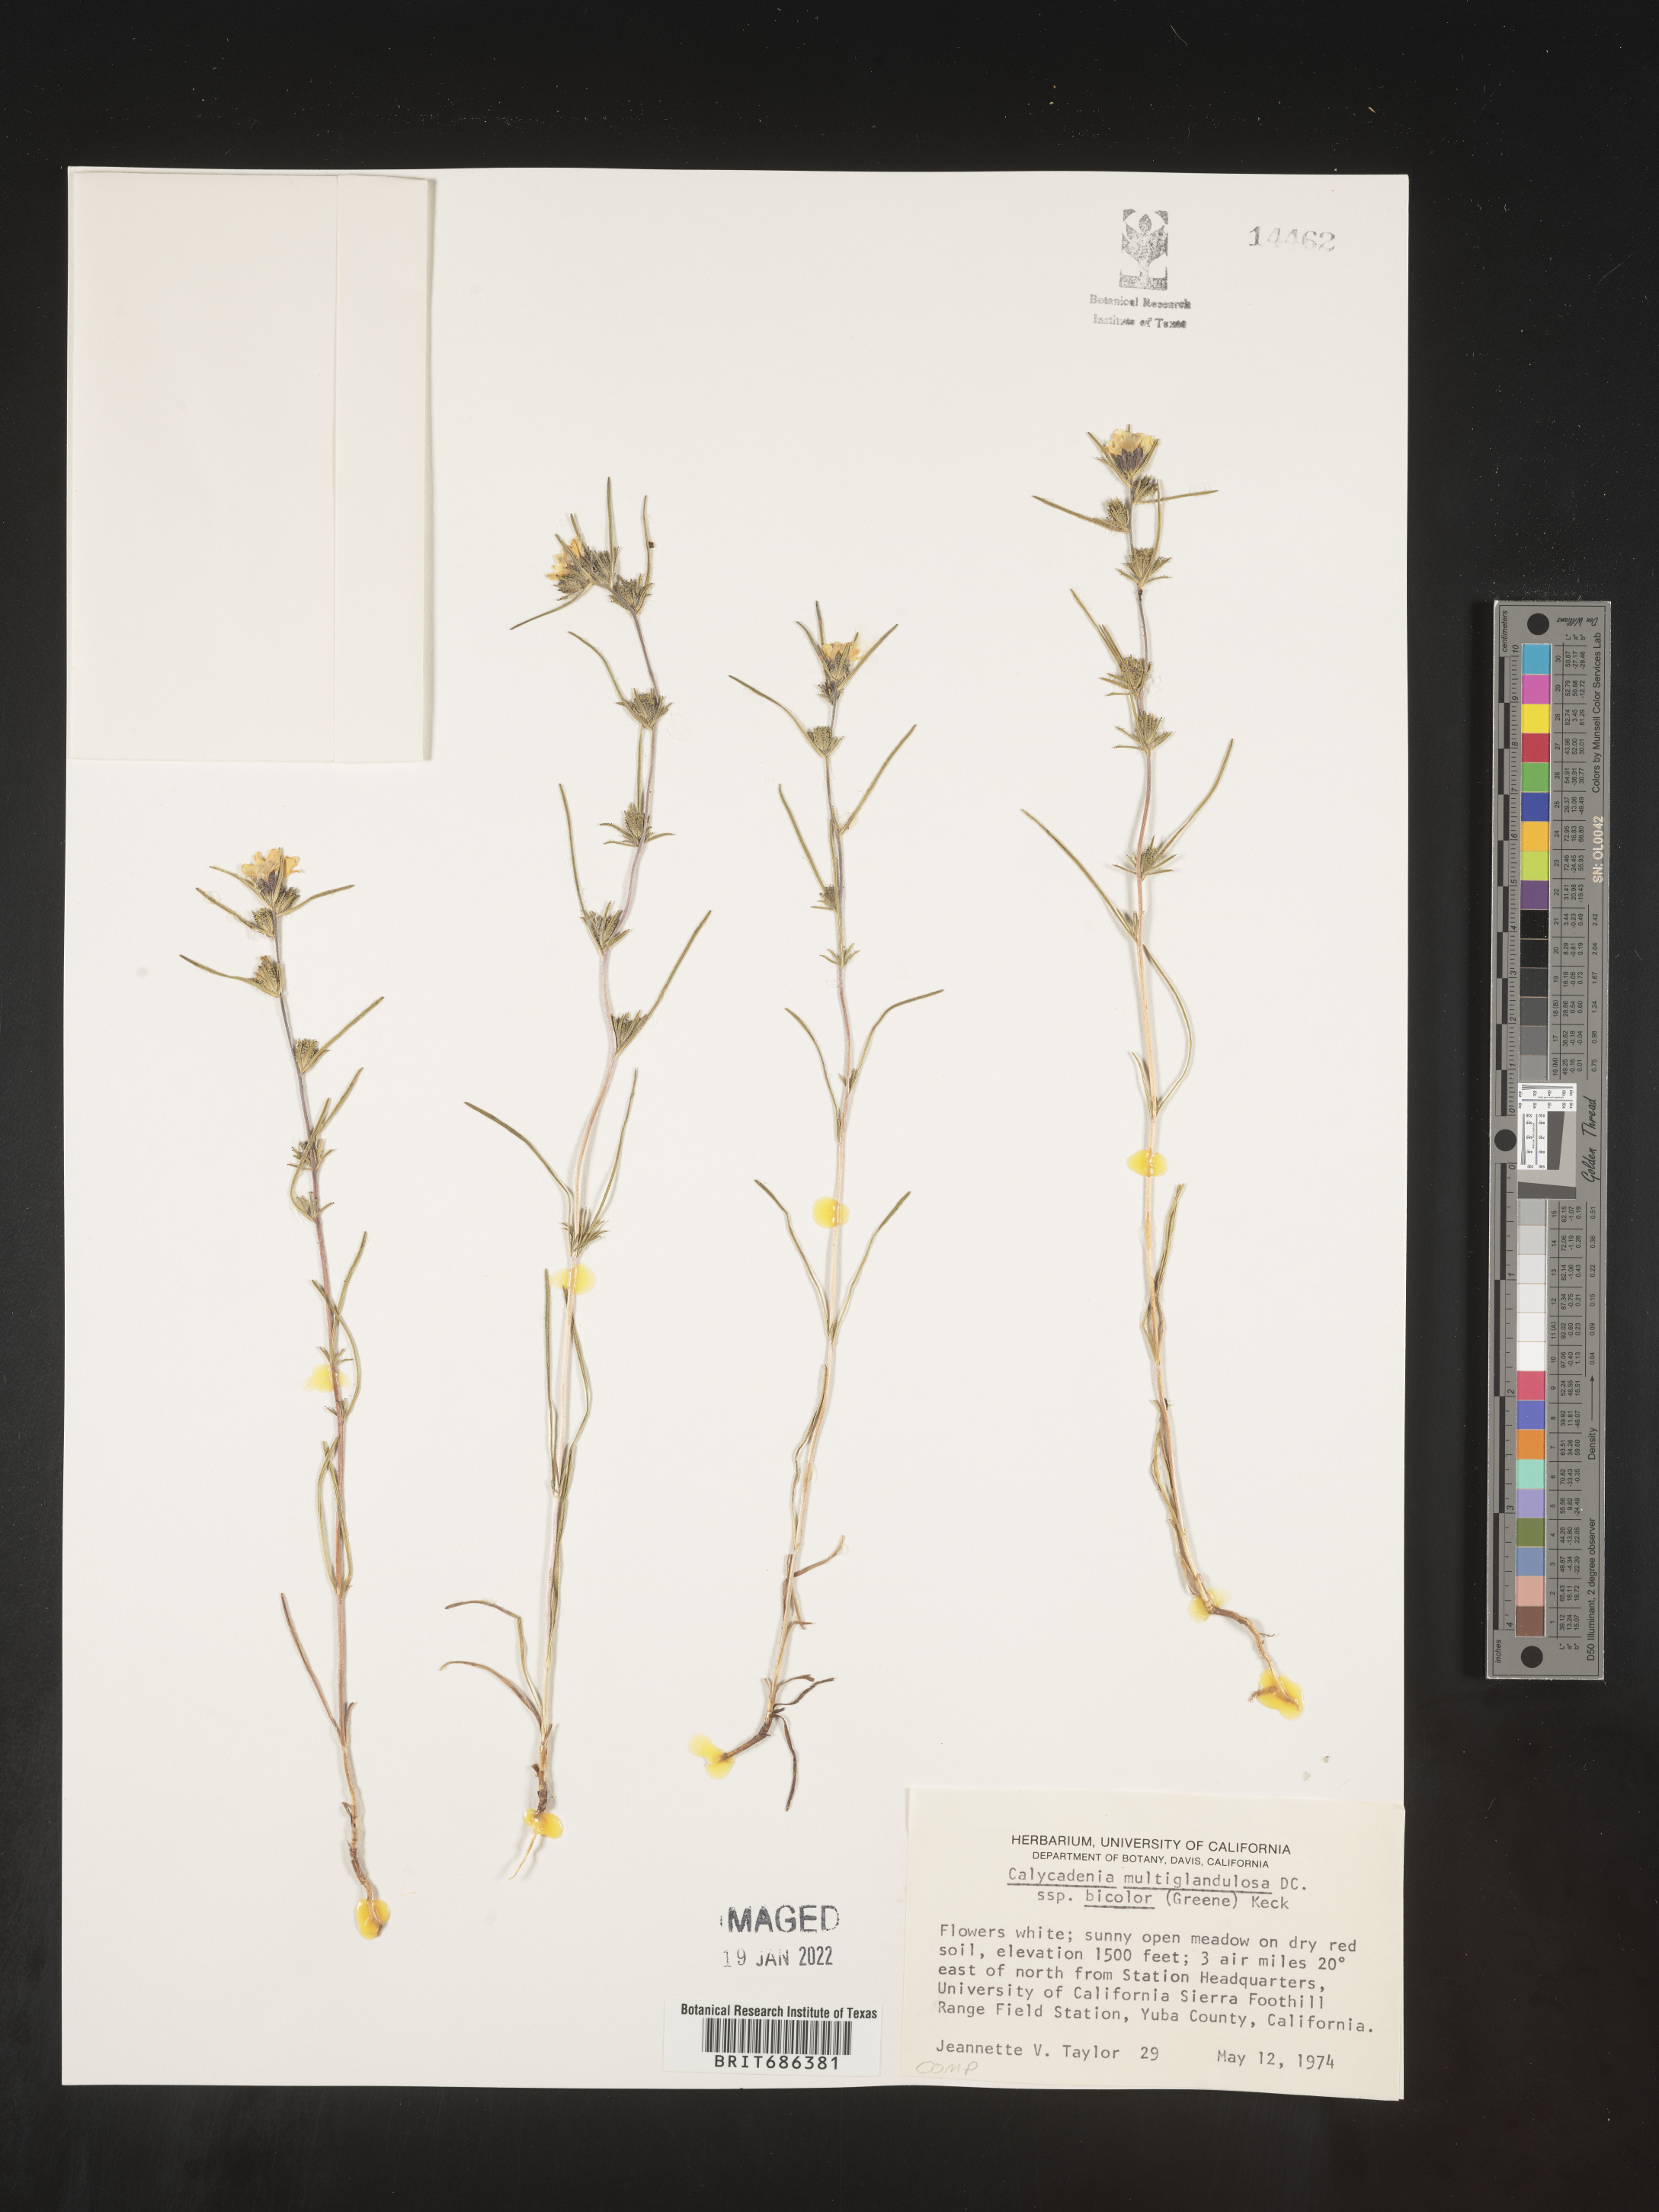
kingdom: Plantae
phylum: Tracheophyta
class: Magnoliopsida
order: Asterales
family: Asteraceae
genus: Calycadenia
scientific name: Calycadenia
